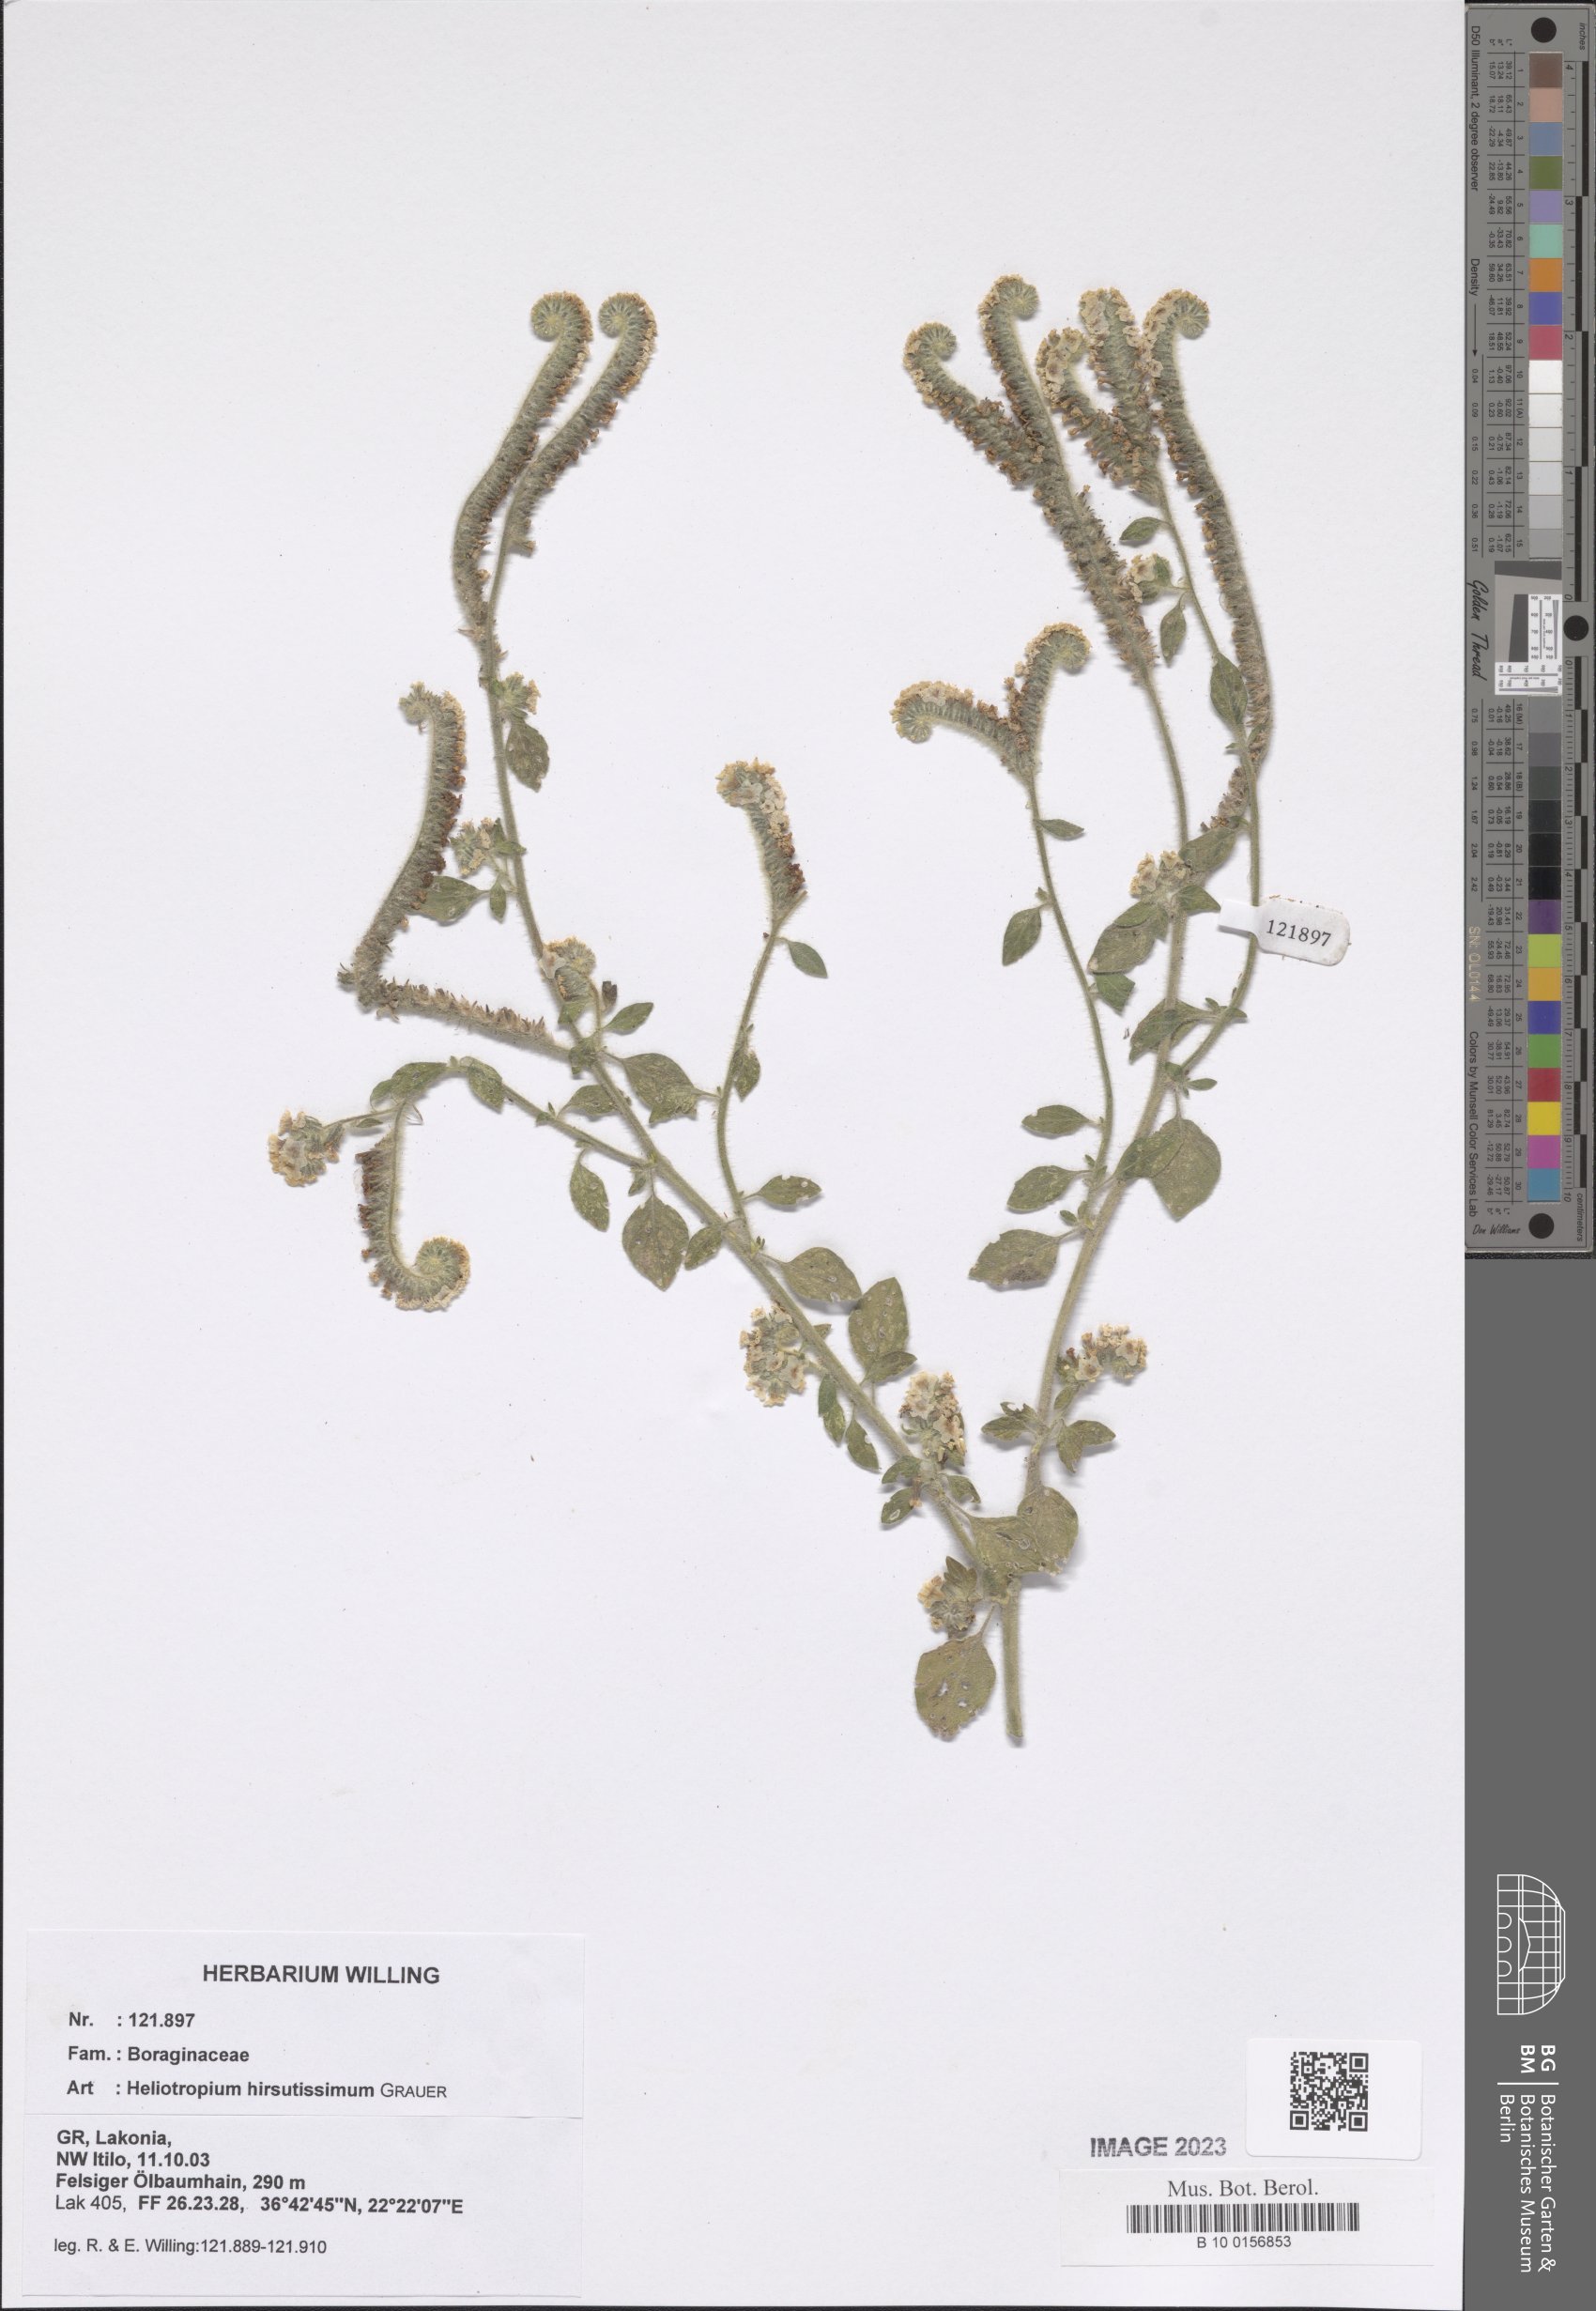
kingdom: Plantae
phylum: Tracheophyta
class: Magnoliopsida
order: Boraginales
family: Heliotropiaceae
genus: Heliotropium
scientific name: Heliotropium hirsutissimum
